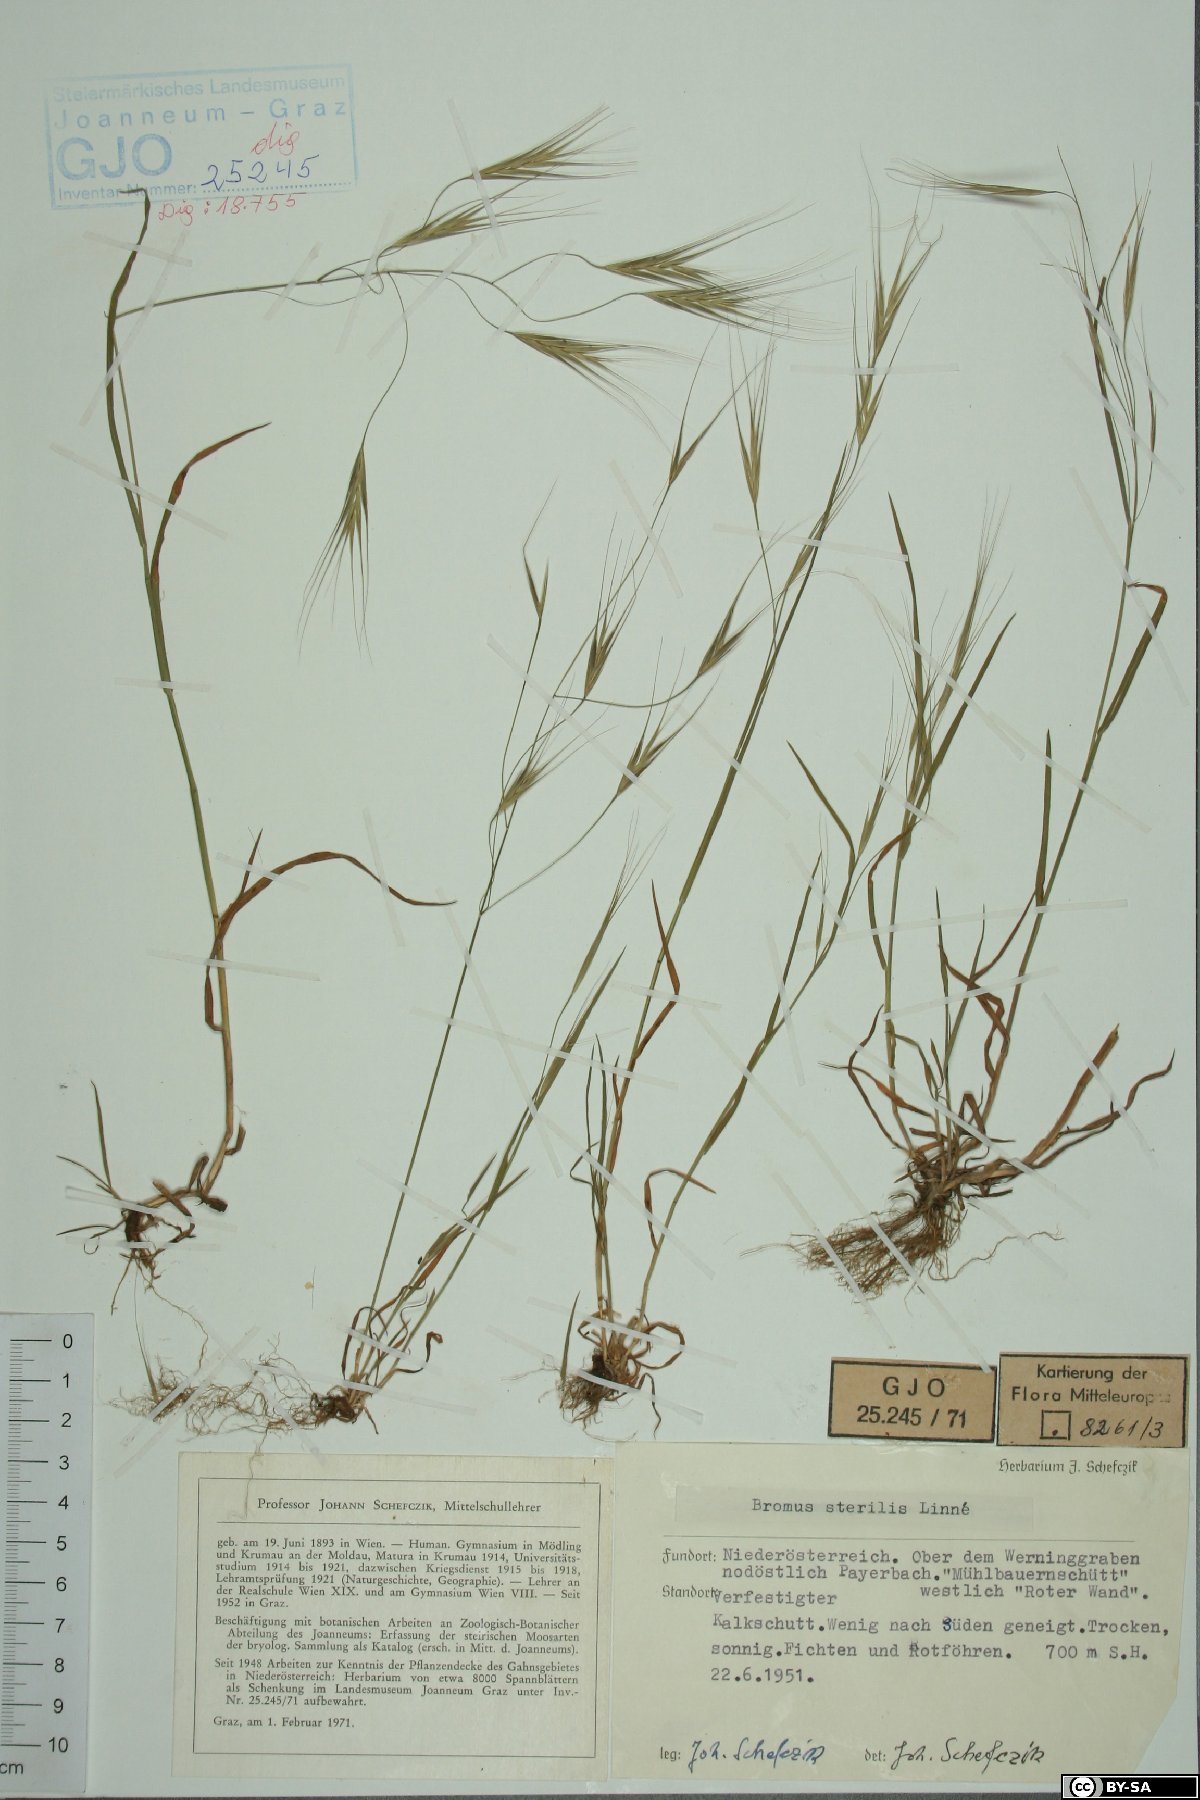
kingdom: Plantae
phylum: Tracheophyta
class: Liliopsida
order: Poales
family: Poaceae
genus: Bromus
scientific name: Bromus sterilis
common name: Poverty brome
